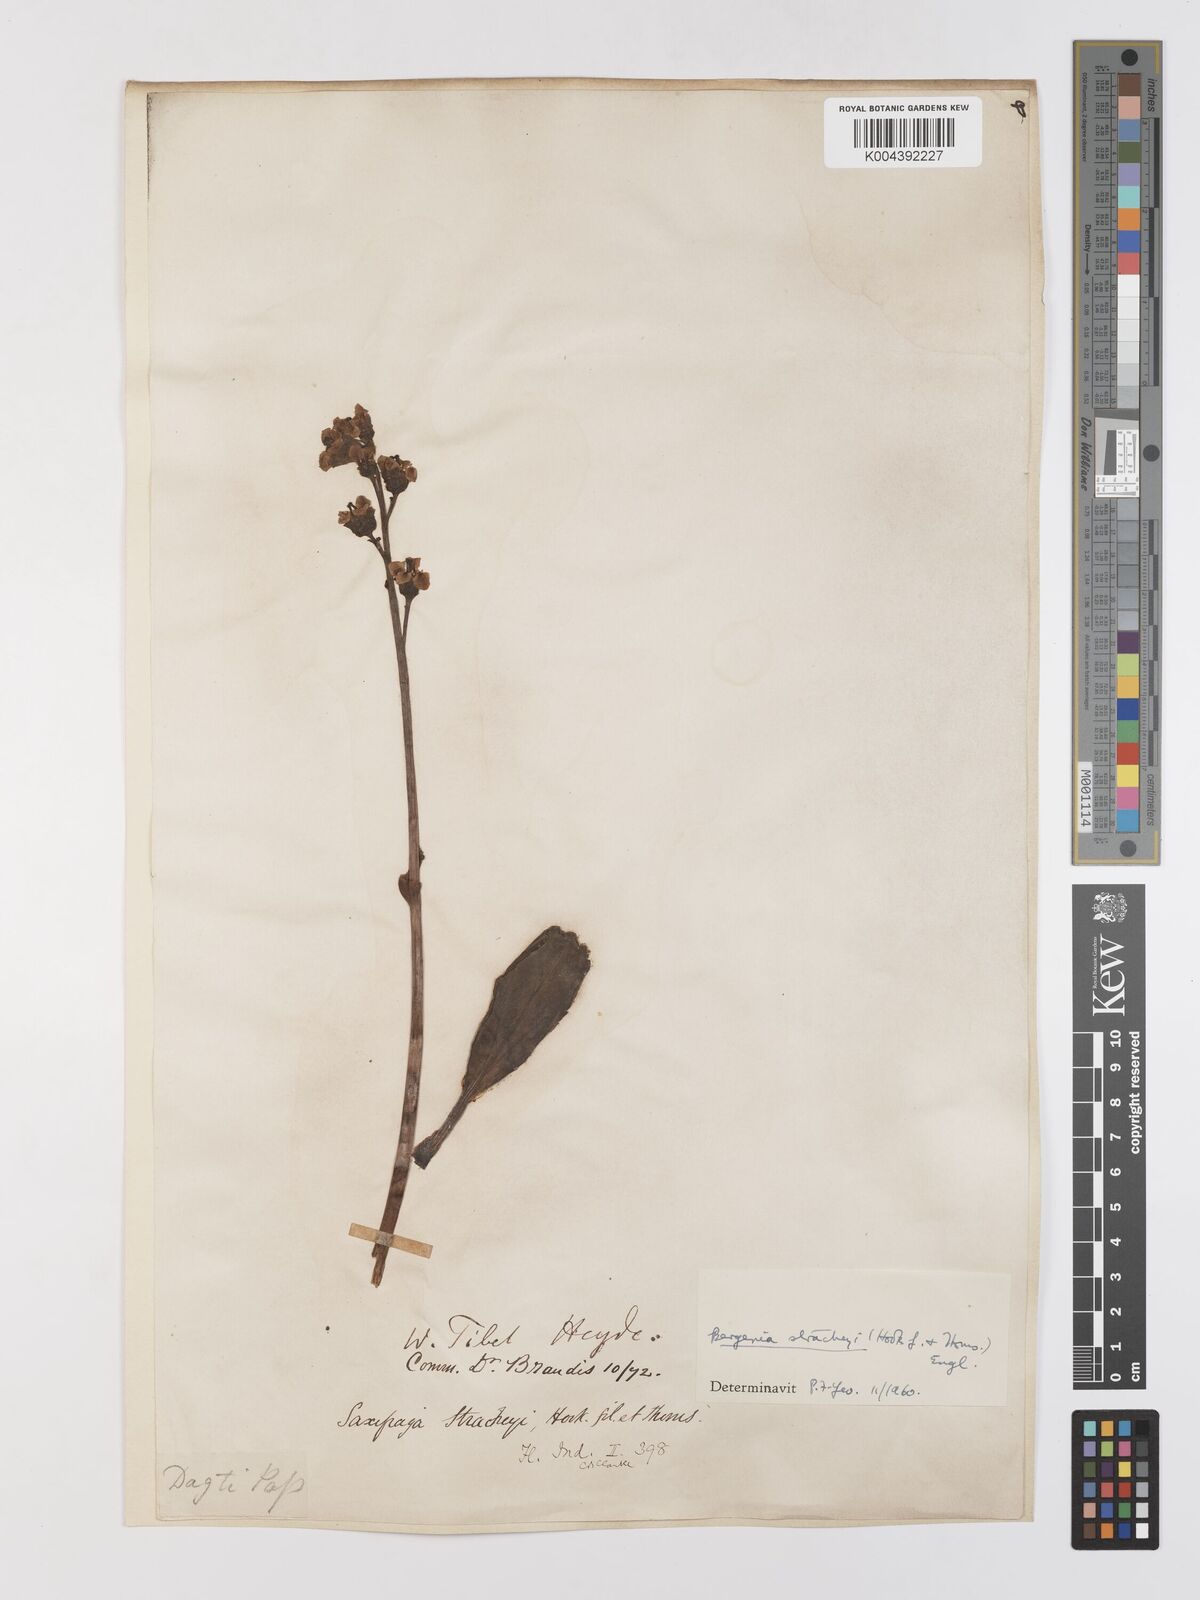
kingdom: Plantae
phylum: Tracheophyta
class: Magnoliopsida
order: Saxifragales
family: Saxifragaceae
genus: Bergenia
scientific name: Bergenia stracheyi
